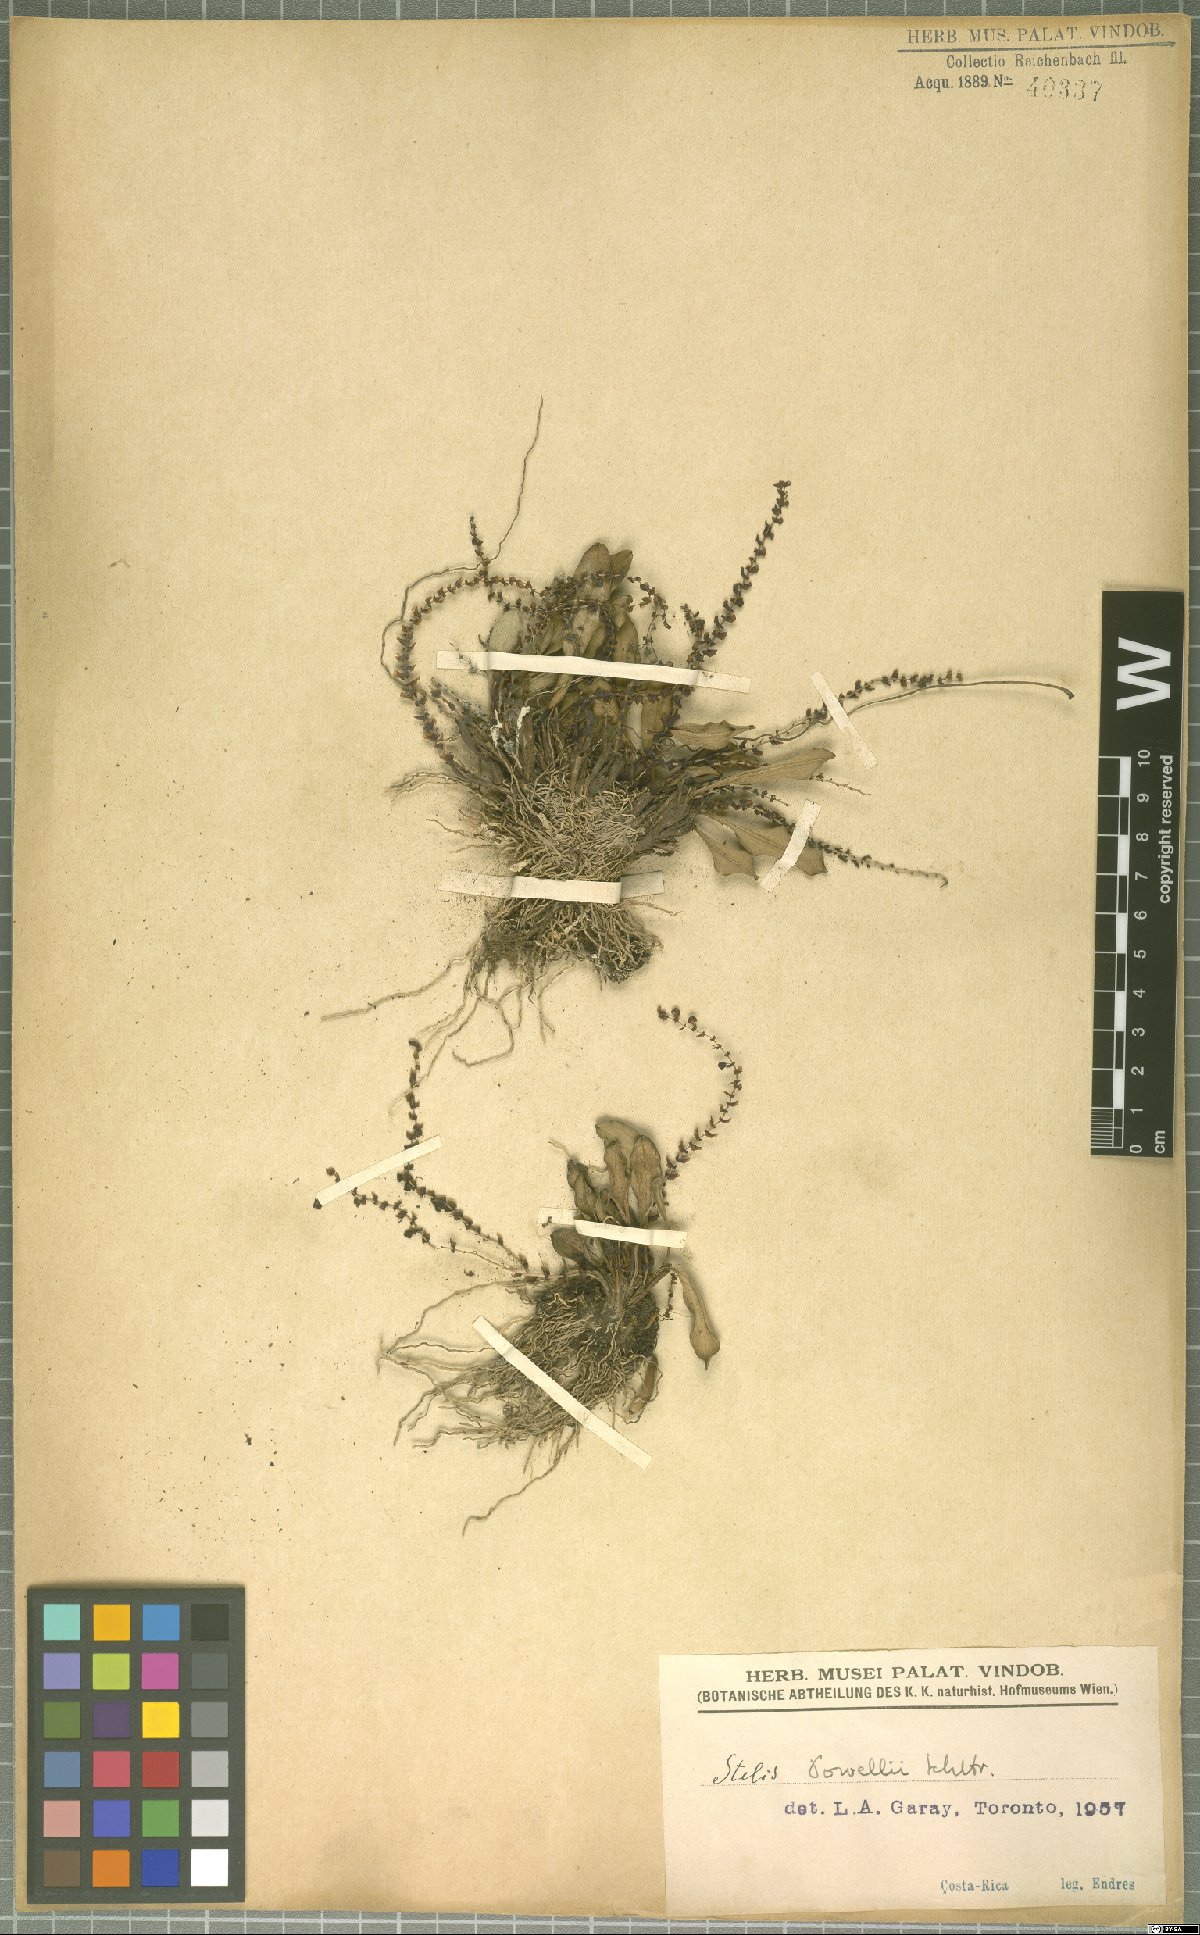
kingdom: Plantae
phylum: Tracheophyta
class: Liliopsida
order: Asparagales
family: Orchidaceae
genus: Stelis
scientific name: Stelis powellii
